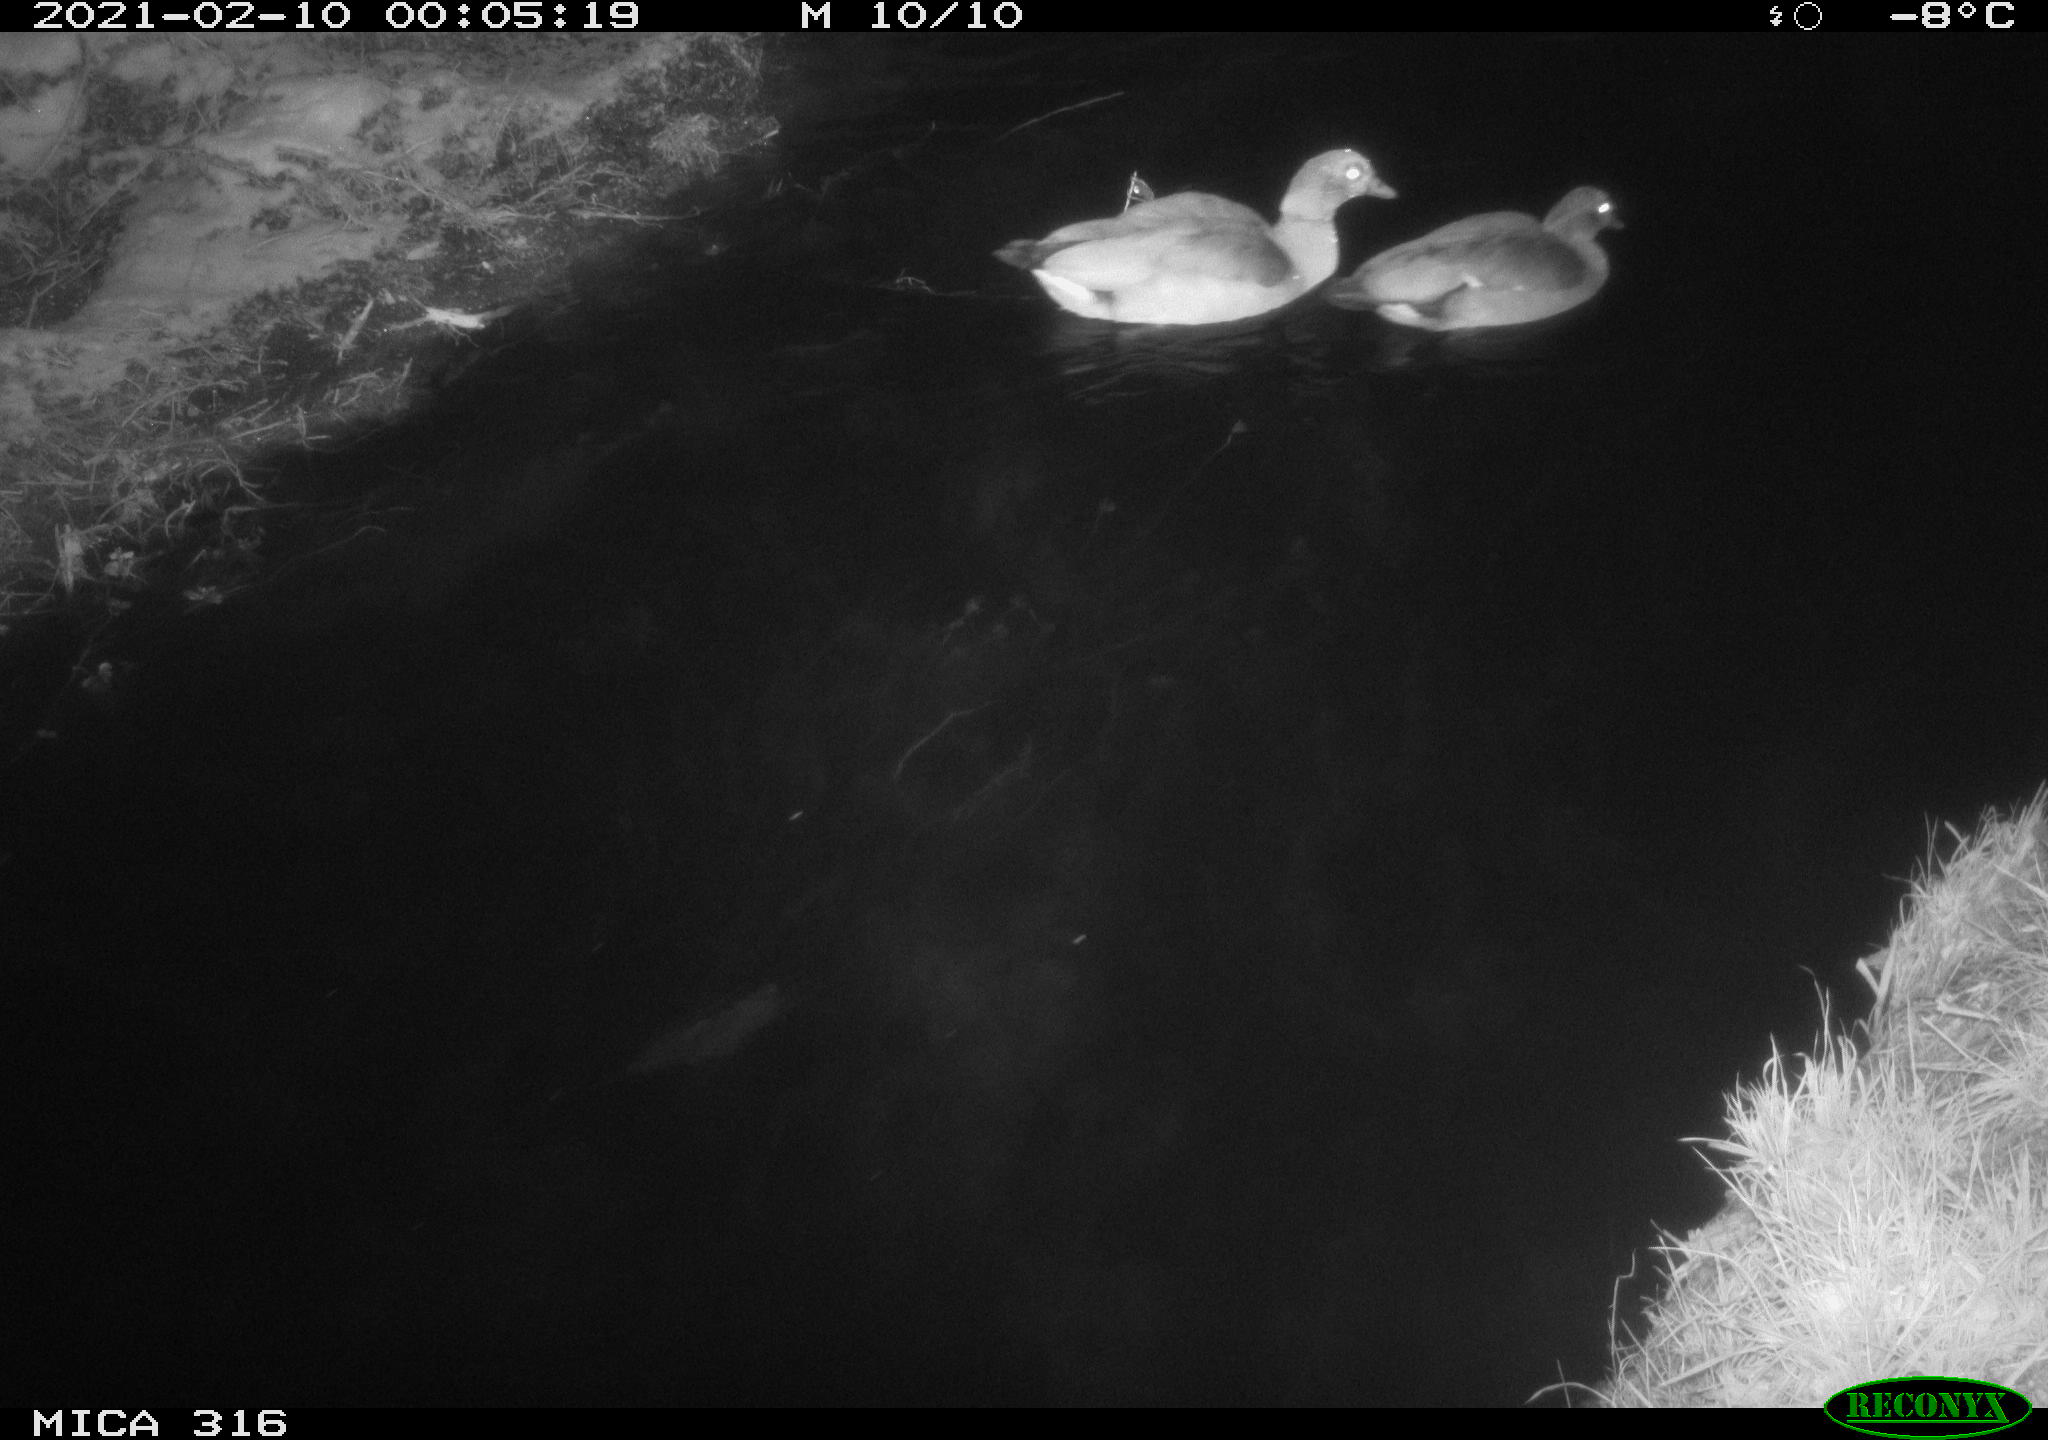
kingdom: Animalia
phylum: Chordata
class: Aves
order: Gruiformes
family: Rallidae
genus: Gallinula
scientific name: Gallinula chloropus
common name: Common moorhen
